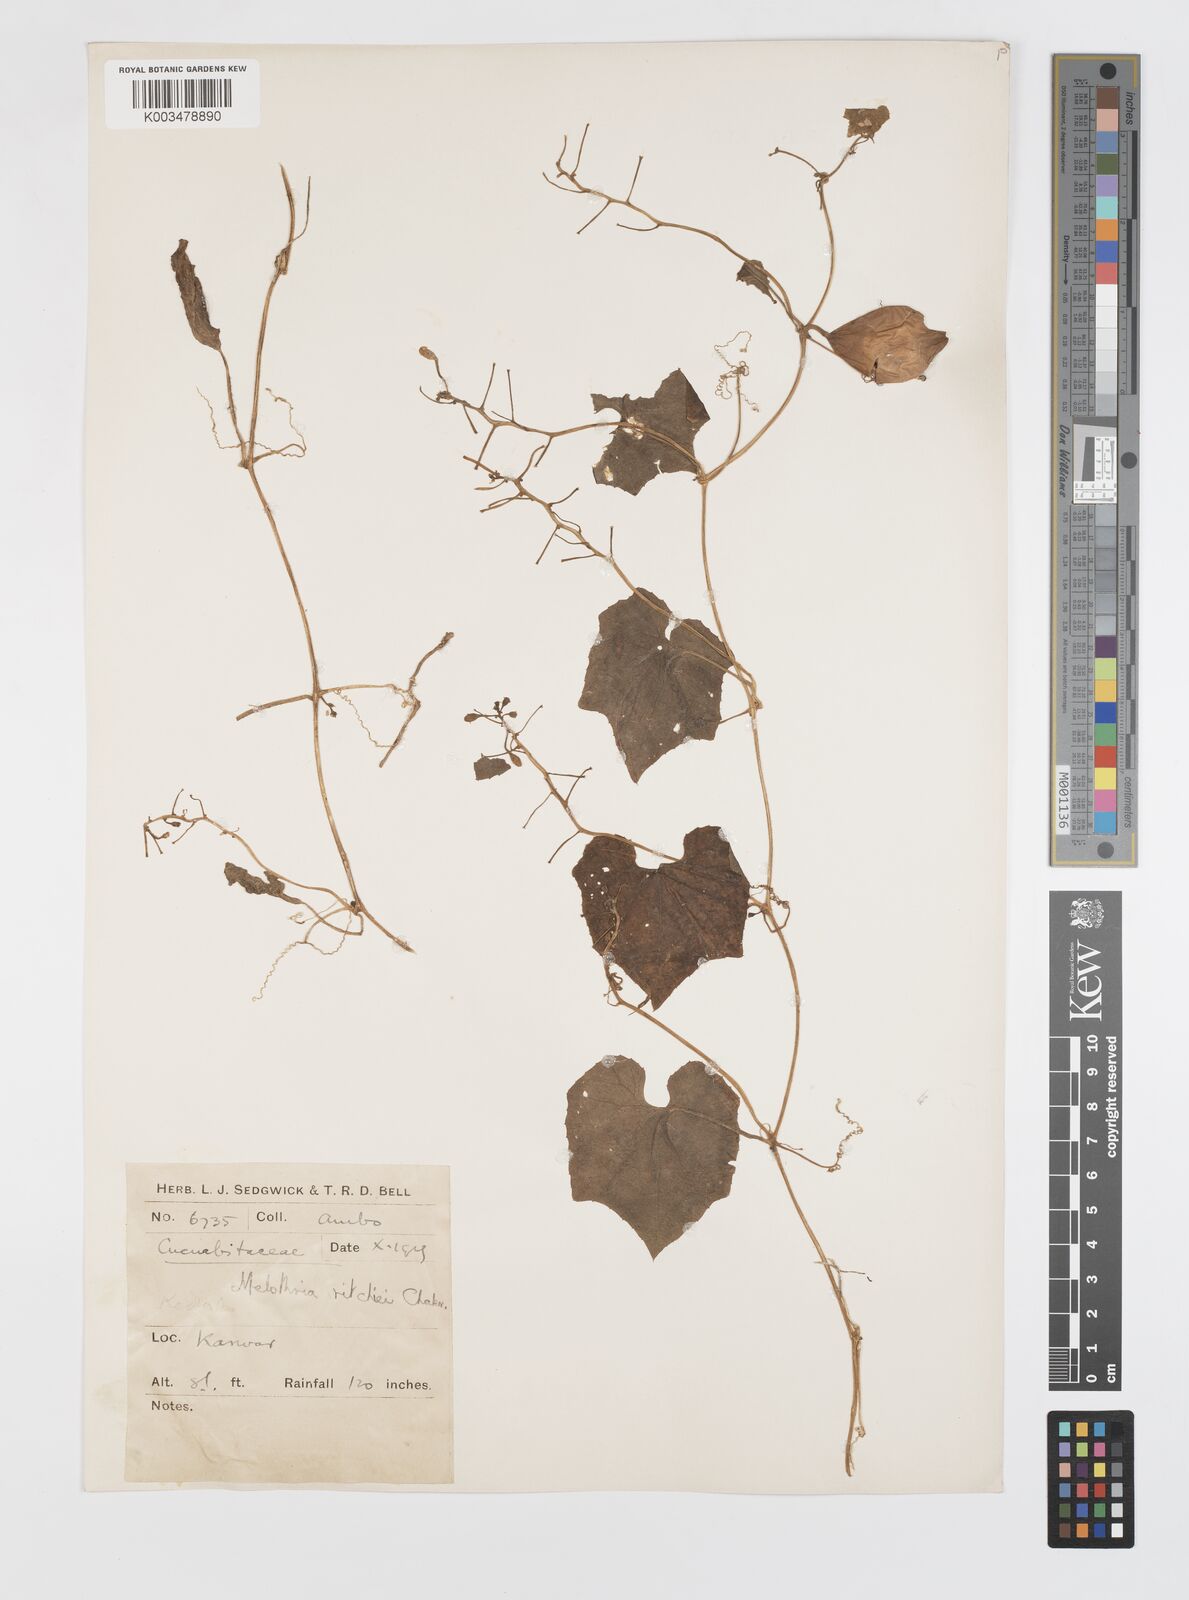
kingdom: Plantae
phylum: Tracheophyta
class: Magnoliopsida
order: Cucurbitales
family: Cucurbitaceae
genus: Trichosanthes
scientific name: Trichosanthes cucumerina
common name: Snakegourd
